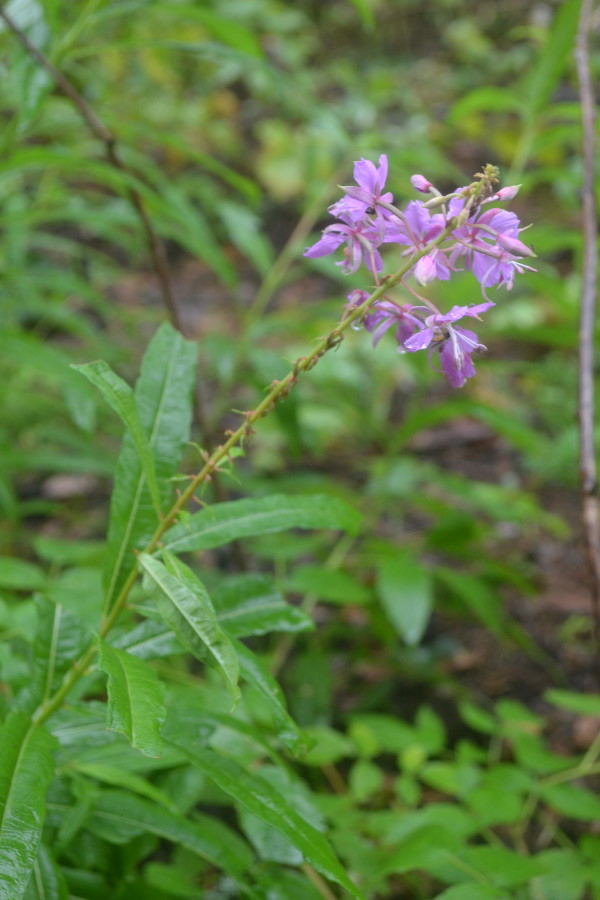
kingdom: Plantae
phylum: Tracheophyta
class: Magnoliopsida
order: Myrtales
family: Onagraceae
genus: Chamaenerion
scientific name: Chamaenerion angustifolium
